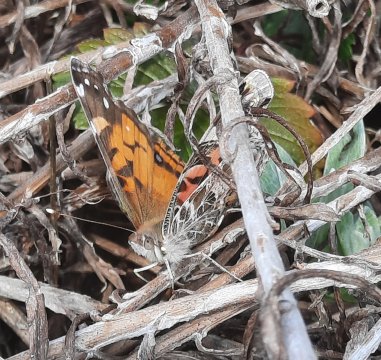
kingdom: Animalia
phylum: Arthropoda
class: Insecta
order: Lepidoptera
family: Nymphalidae
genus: Vanessa
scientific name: Vanessa virginiensis
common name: American Lady
